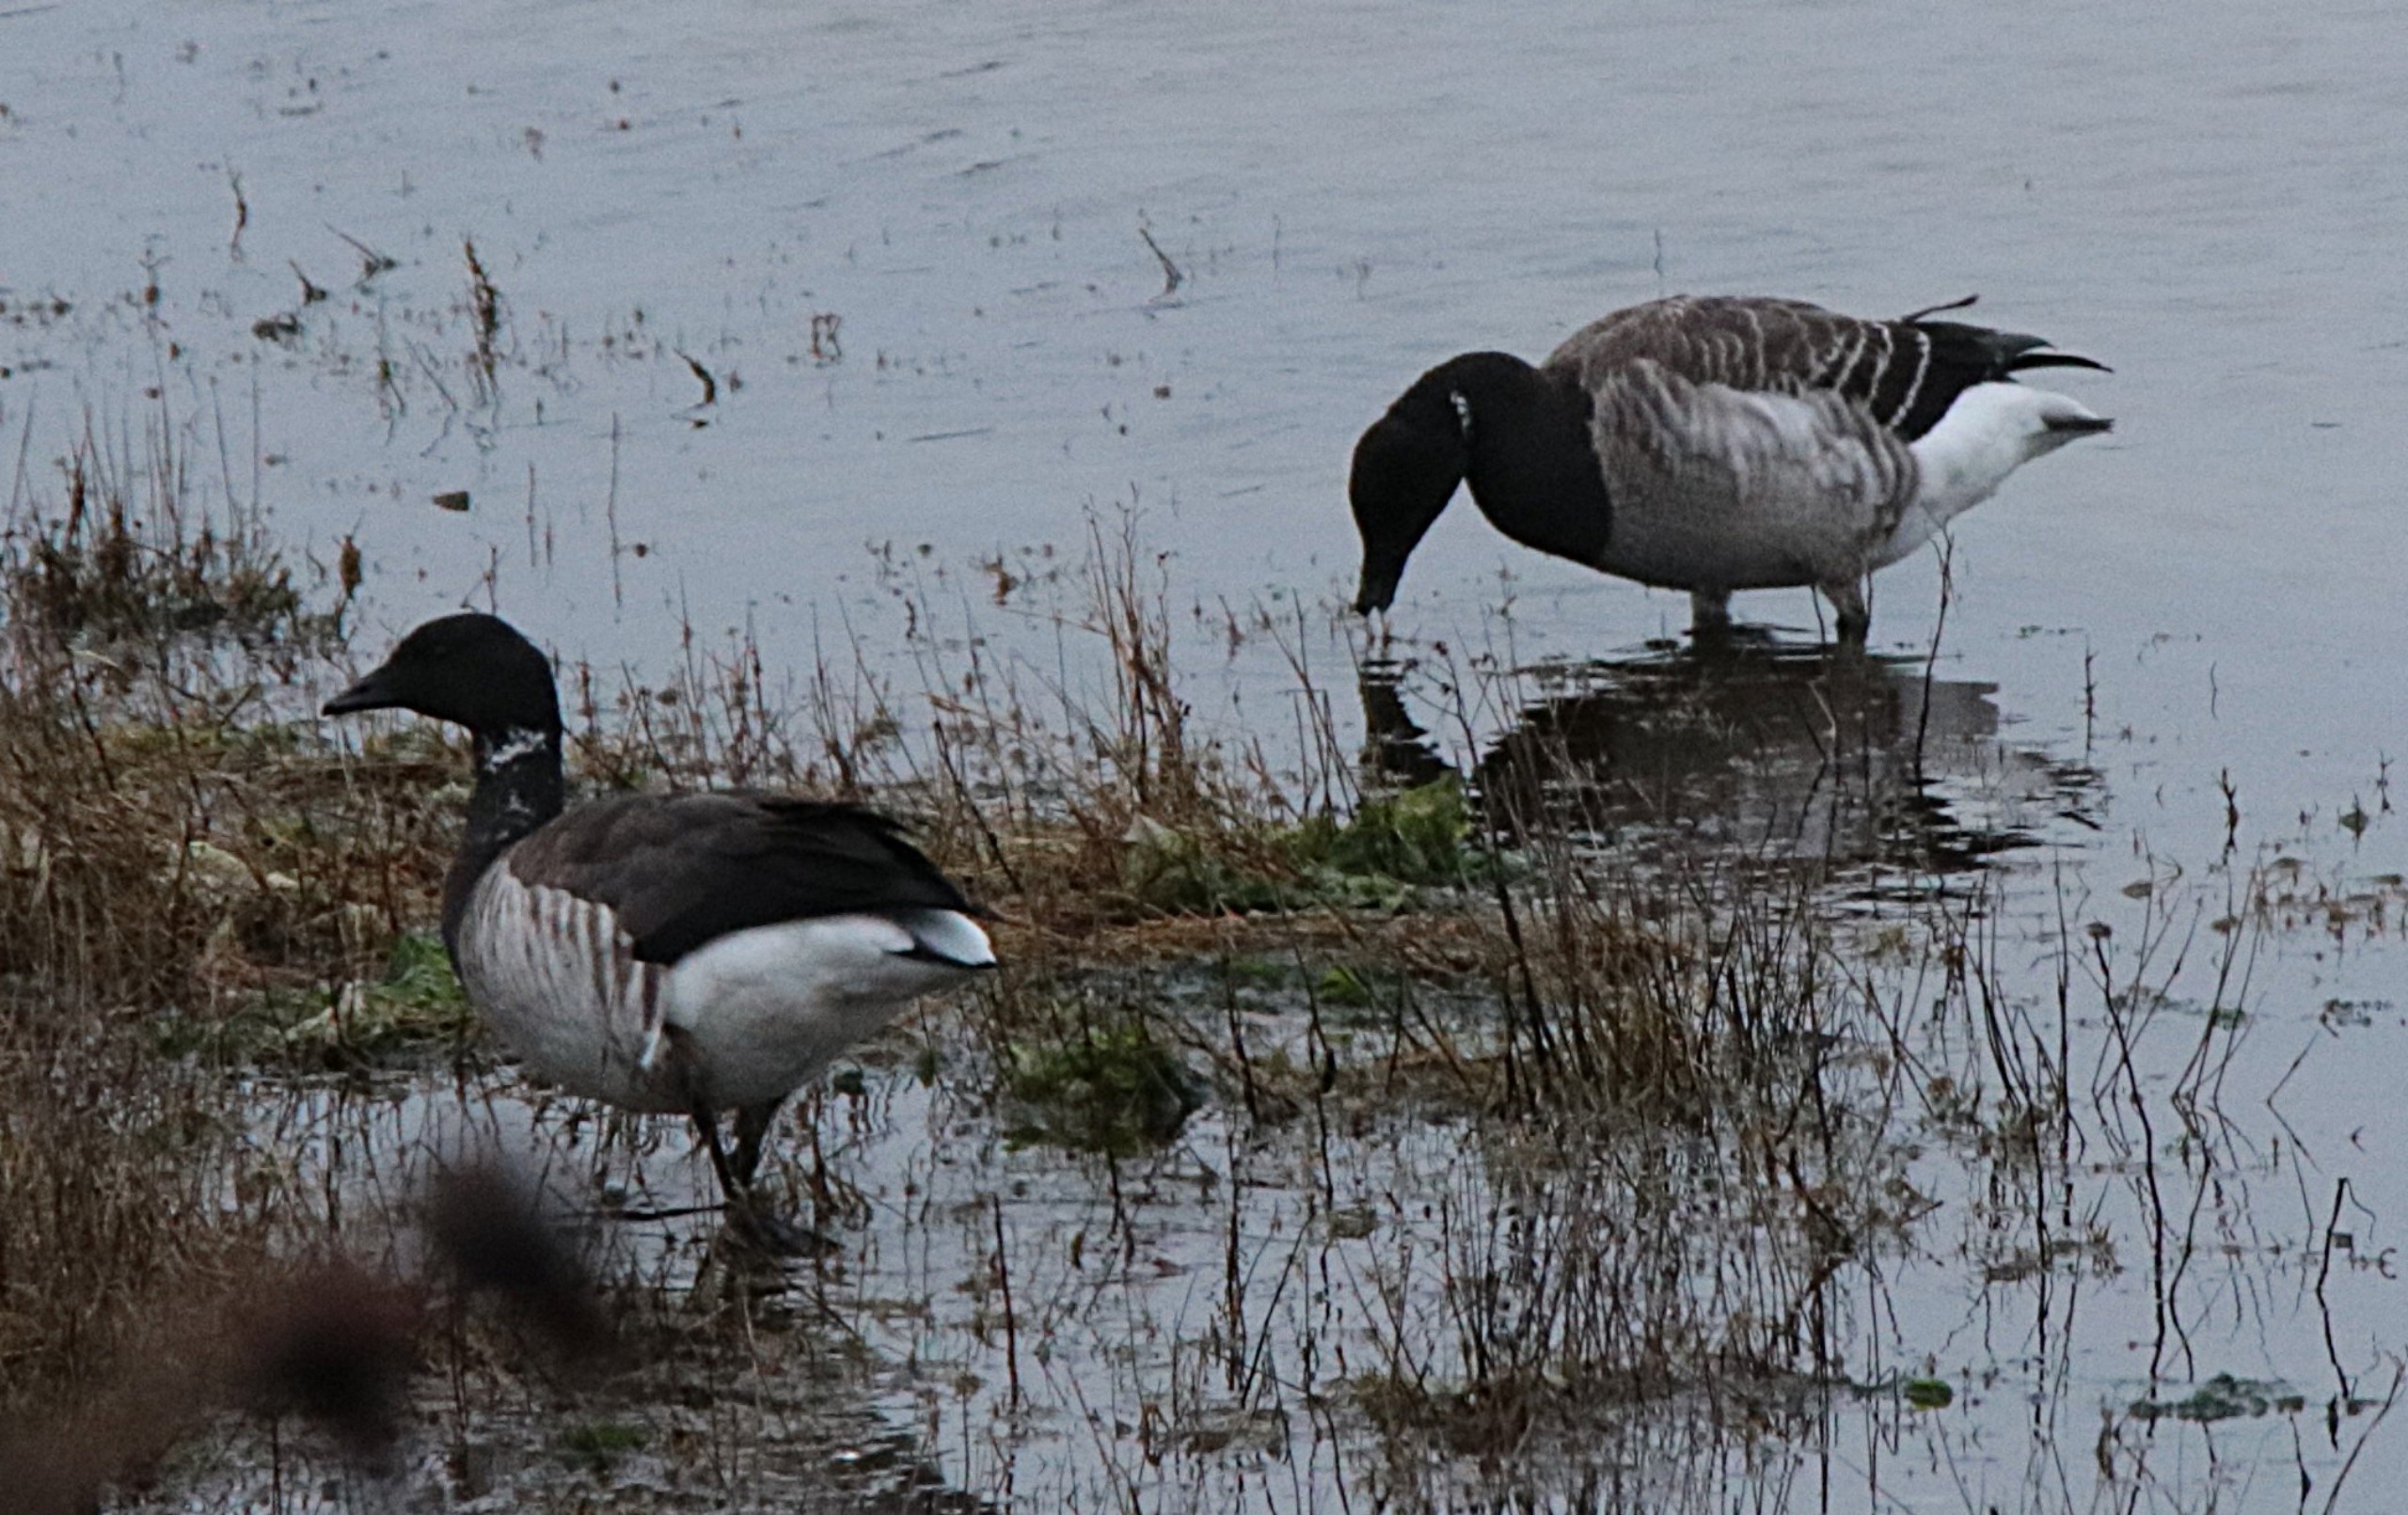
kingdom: Animalia
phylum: Chordata
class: Aves
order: Anseriformes
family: Anatidae
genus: Branta
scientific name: Branta bernicla
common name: Knortegås
